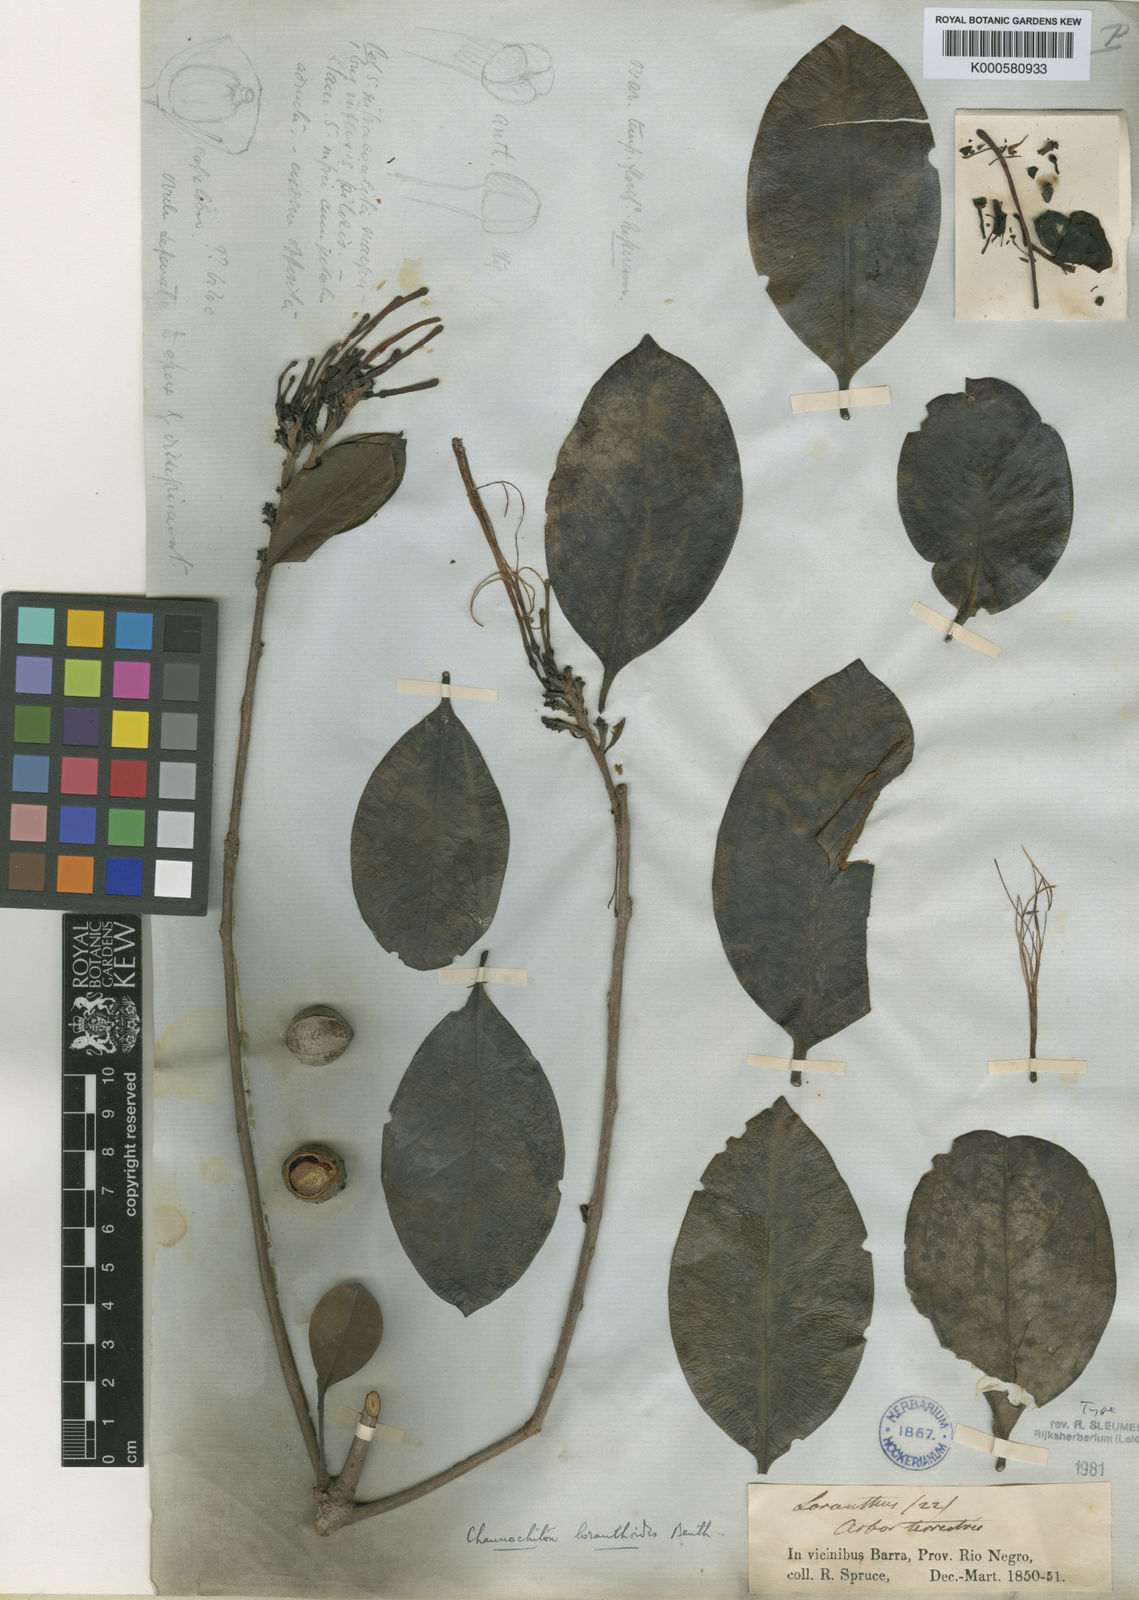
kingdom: Plantae
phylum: Tracheophyta
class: Magnoliopsida
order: Santalales
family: Aptandraceae
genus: Chaunochiton
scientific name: Chaunochiton loranthoides
